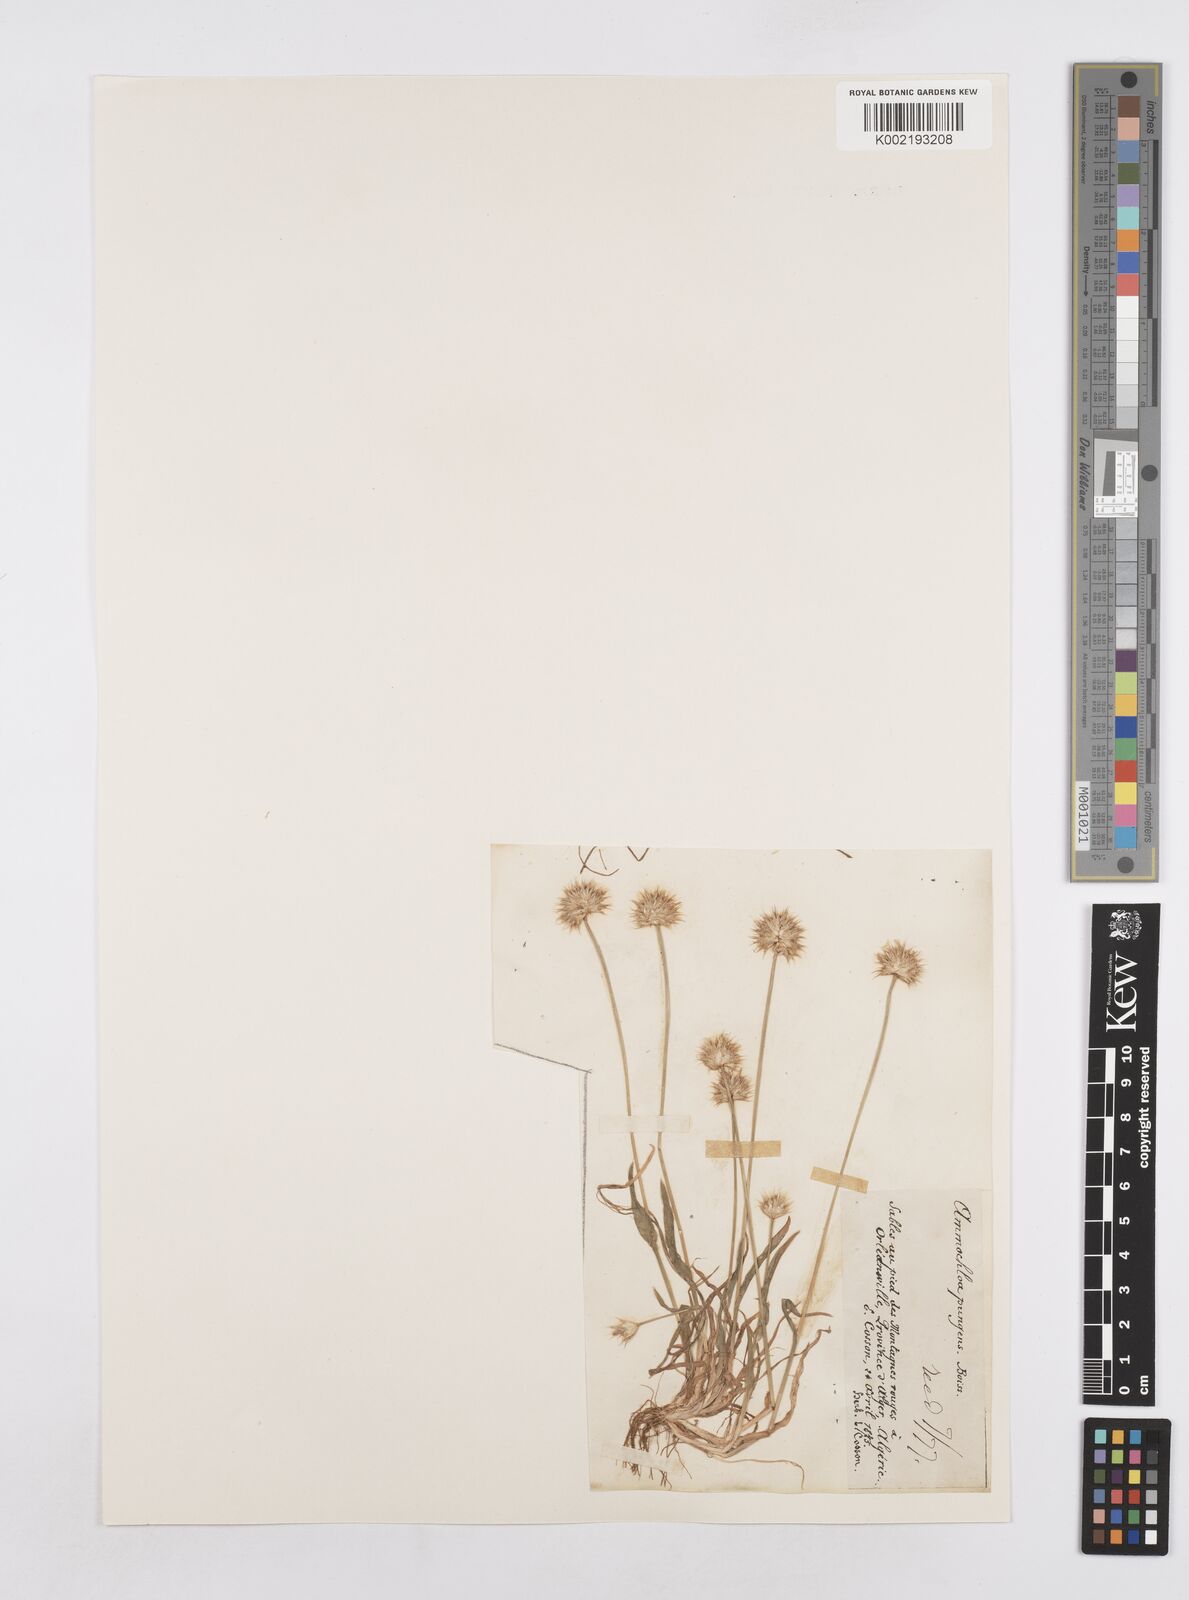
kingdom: Plantae
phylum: Tracheophyta
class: Liliopsida
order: Poales
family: Poaceae
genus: Ammochloa
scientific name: Ammochloa pungens
